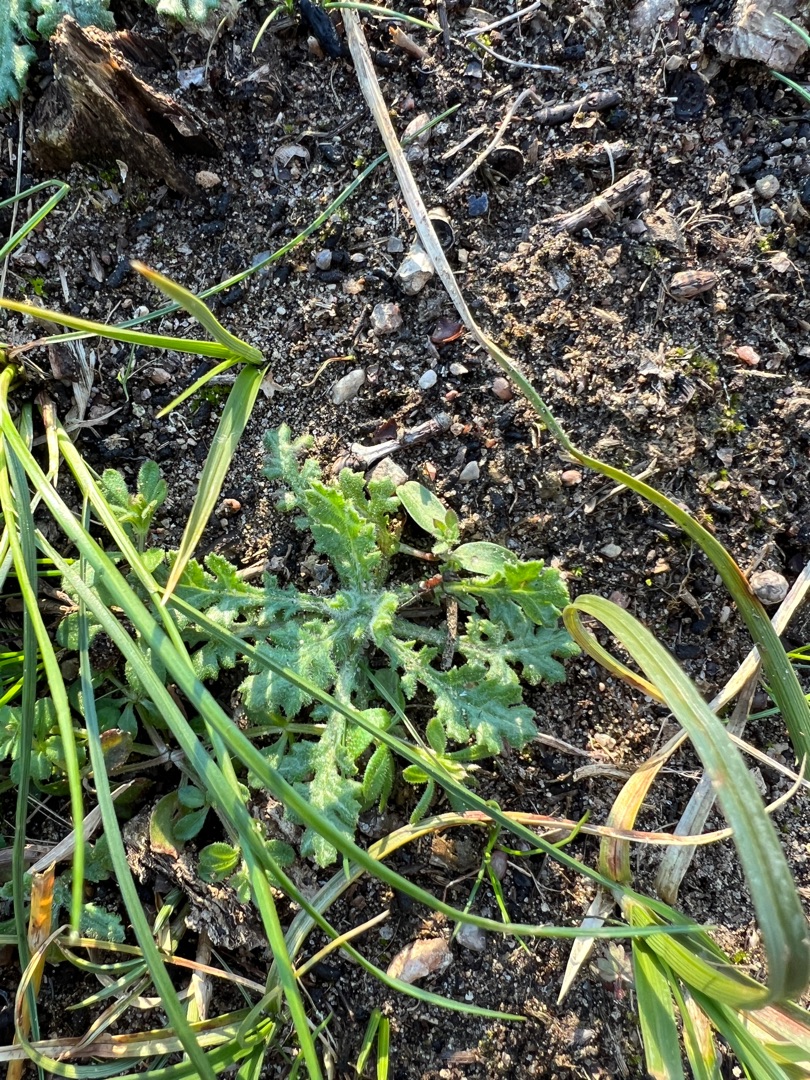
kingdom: Plantae
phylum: Tracheophyta
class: Magnoliopsida
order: Asterales
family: Asteraceae
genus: Senecio
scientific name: Senecio vulgaris
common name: Almindelig brandbæger
